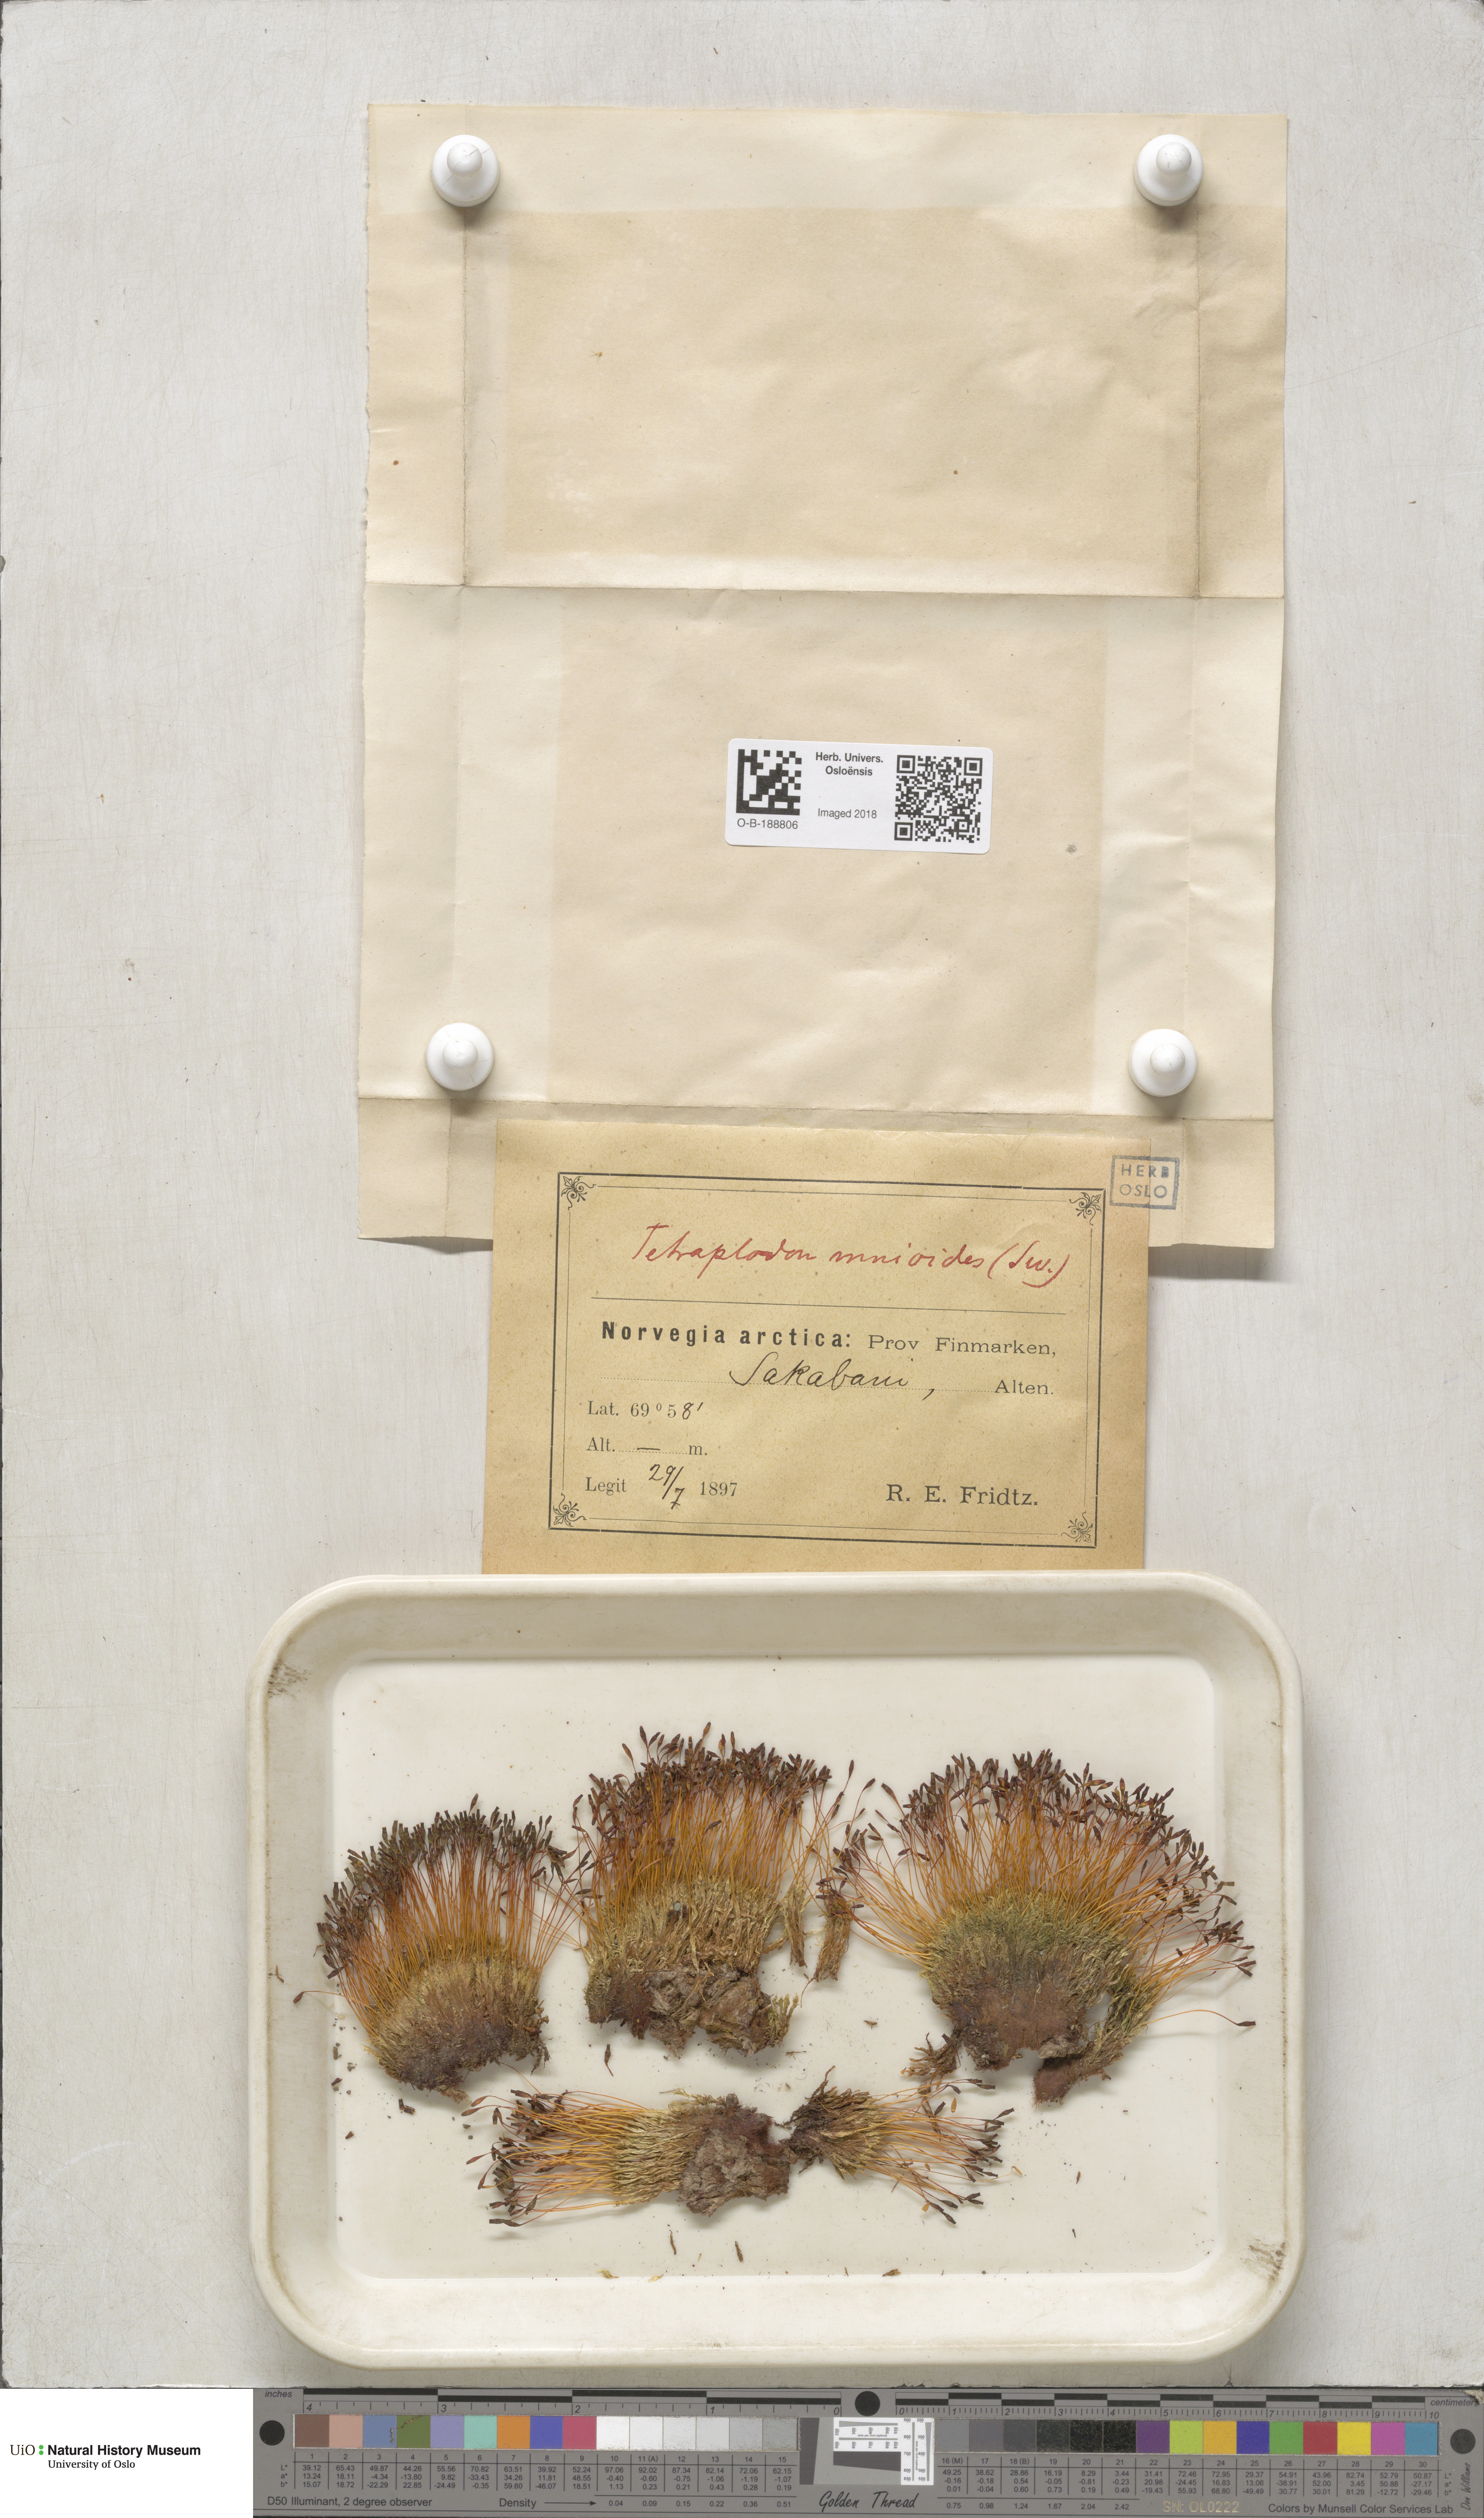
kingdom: Plantae
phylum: Bryophyta
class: Bryopsida
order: Splachnales
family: Splachnaceae
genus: Tetraplodon
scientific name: Tetraplodon mnioides
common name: Entire-leaved nitrogen moss
